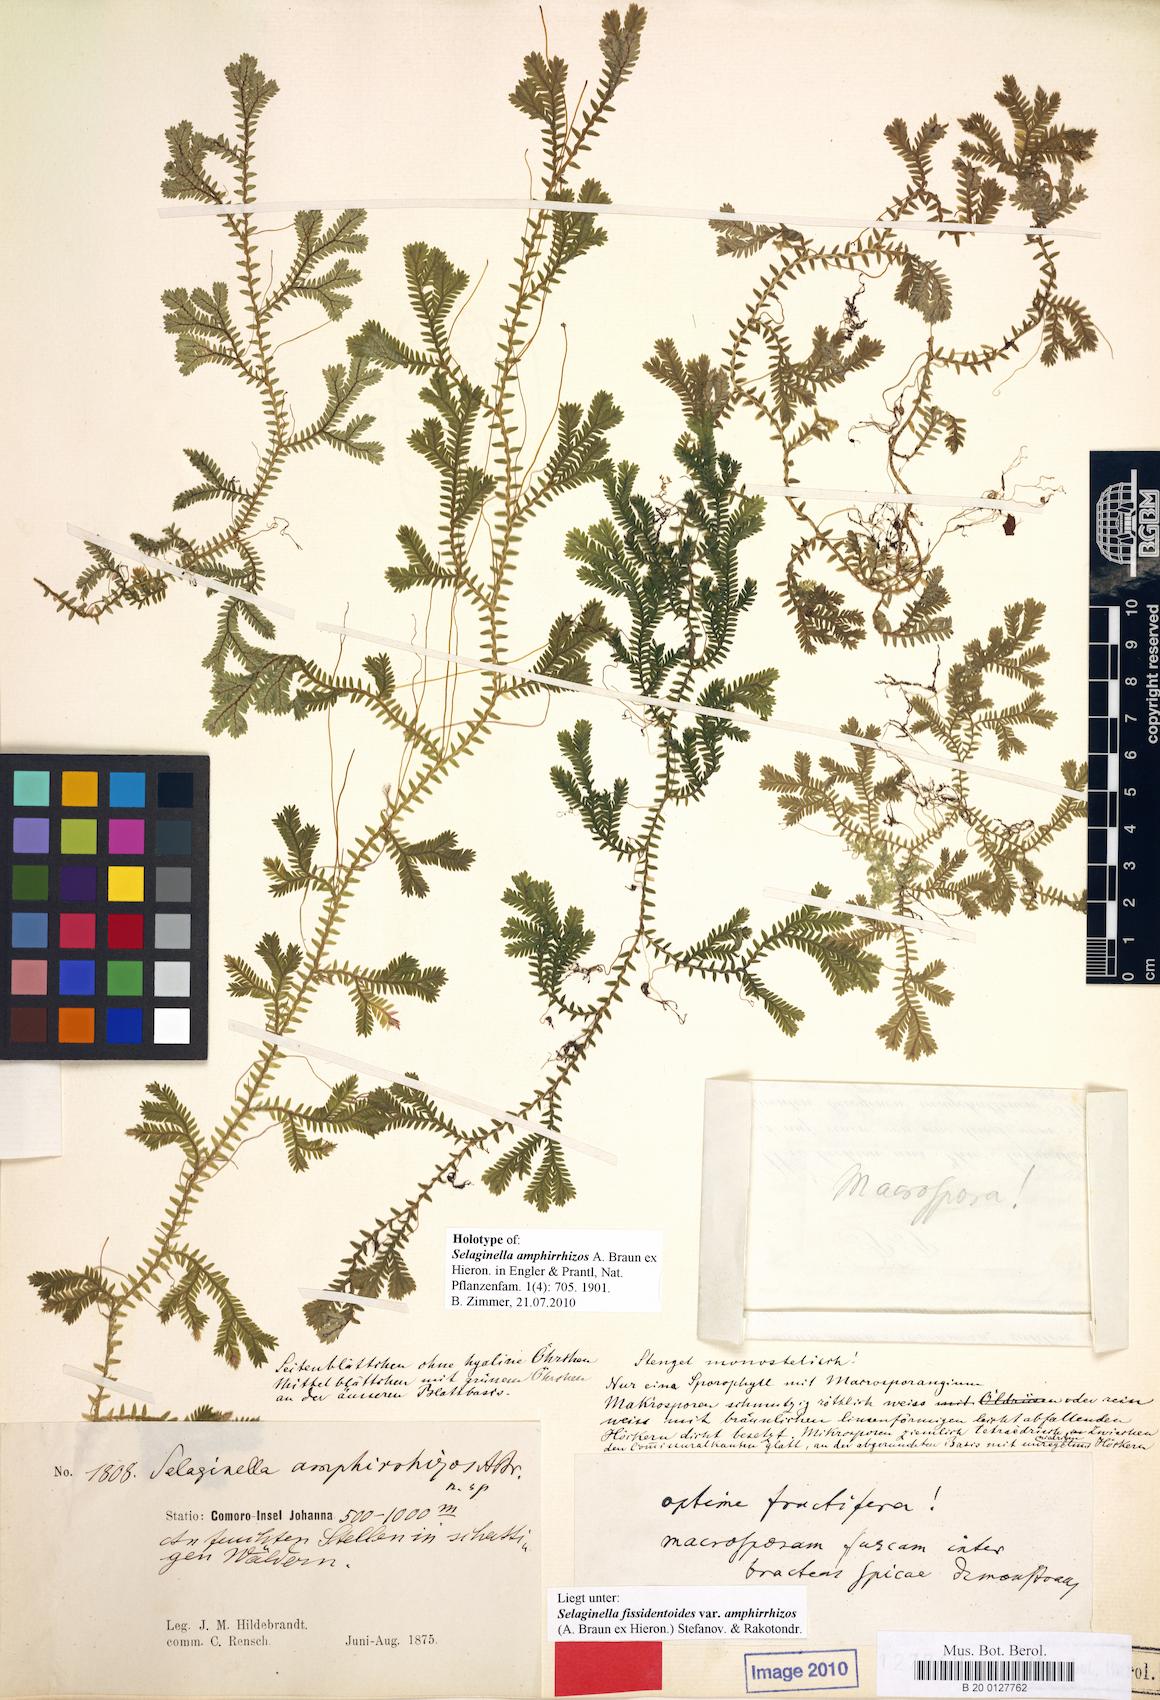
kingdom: Plantae
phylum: Tracheophyta
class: Lycopodiopsida
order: Selaginellales
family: Selaginellaceae
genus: Selaginella
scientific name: Selaginella fissidentoides
